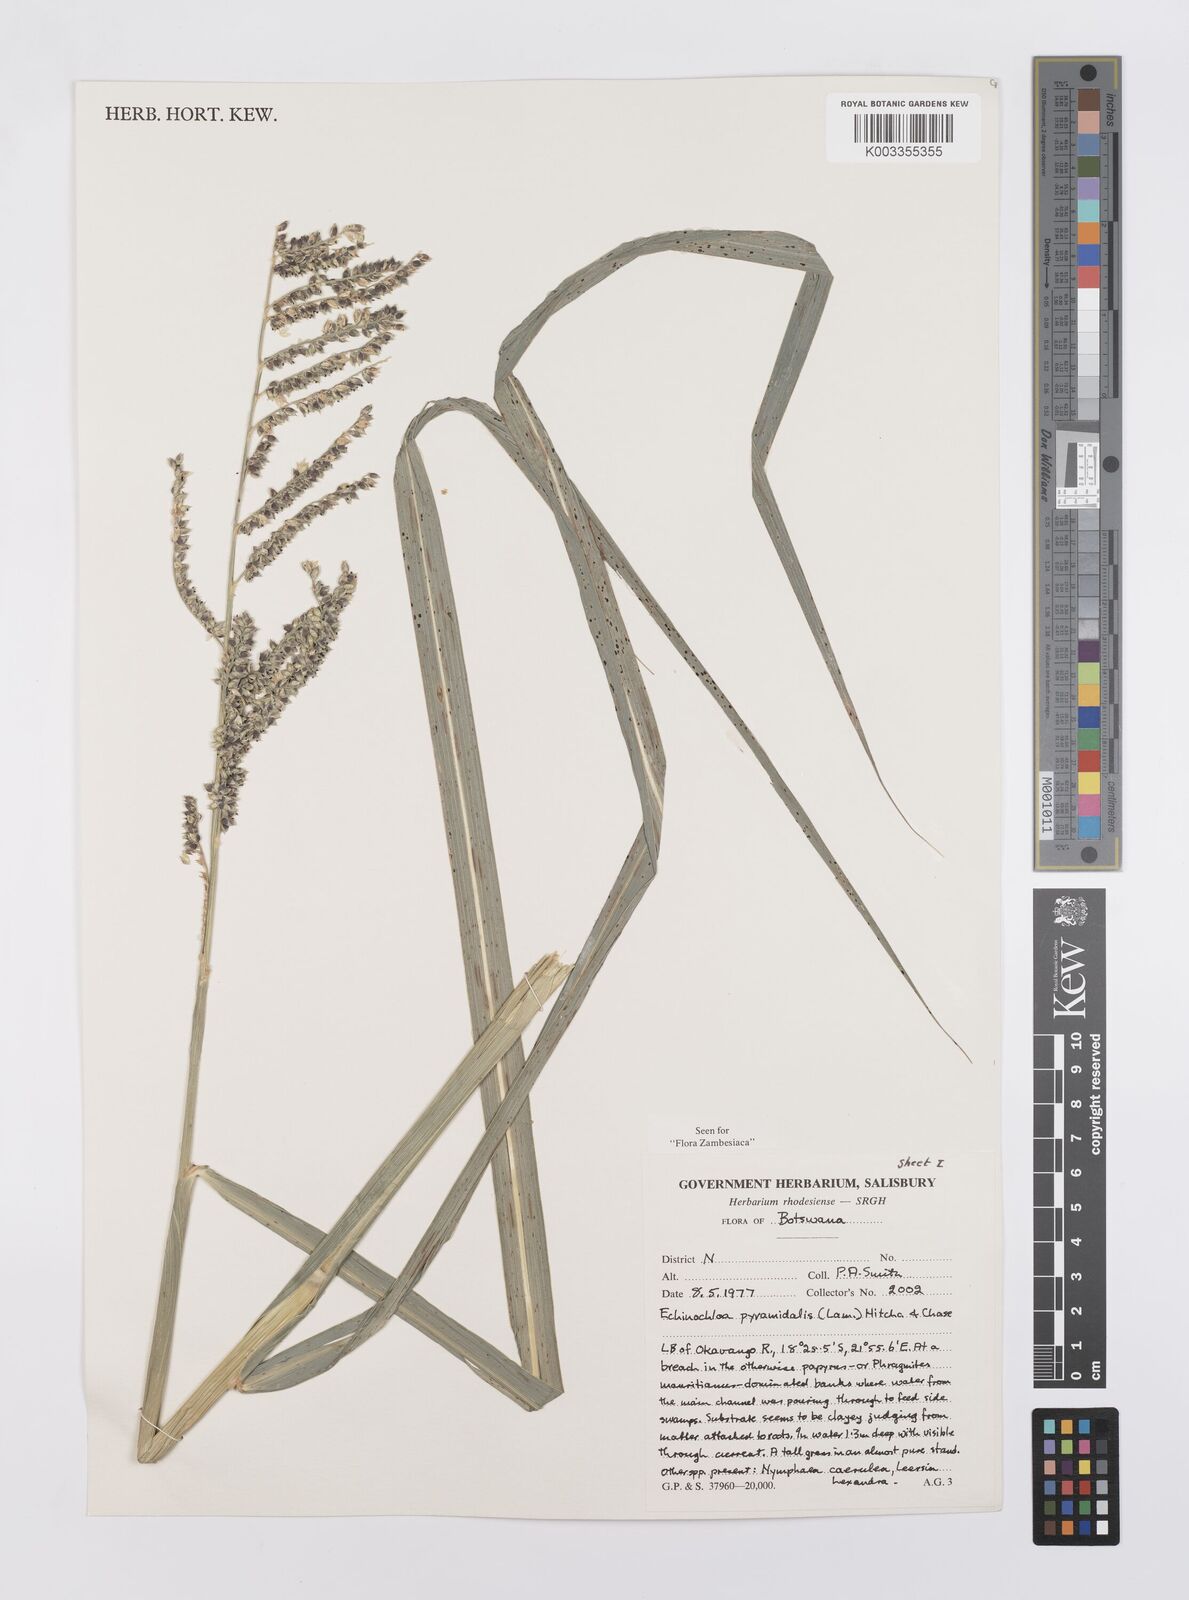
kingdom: Plantae
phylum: Tracheophyta
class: Liliopsida
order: Poales
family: Poaceae
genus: Echinochloa
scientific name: Echinochloa pyramidalis
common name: Antelope grass
